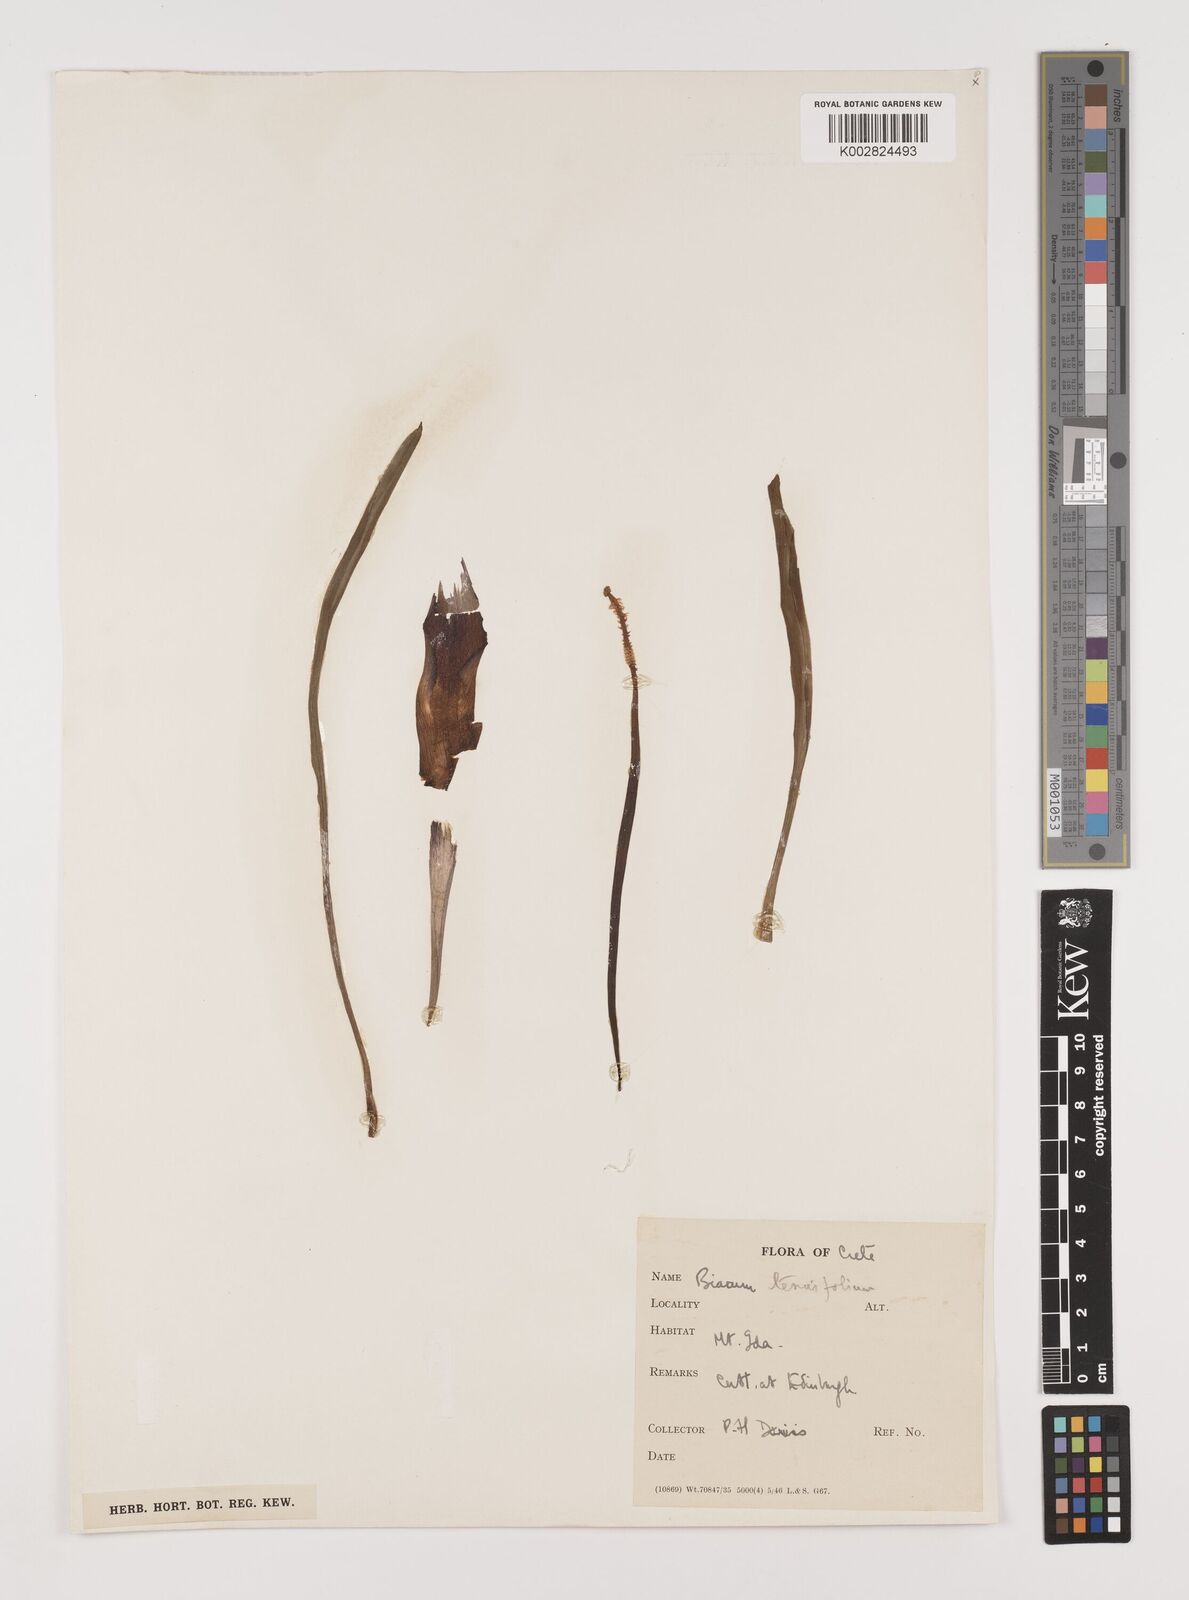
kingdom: Plantae
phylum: Tracheophyta
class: Liliopsida
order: Alismatales
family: Araceae
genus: Biarum
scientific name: Biarum tenuifolium
